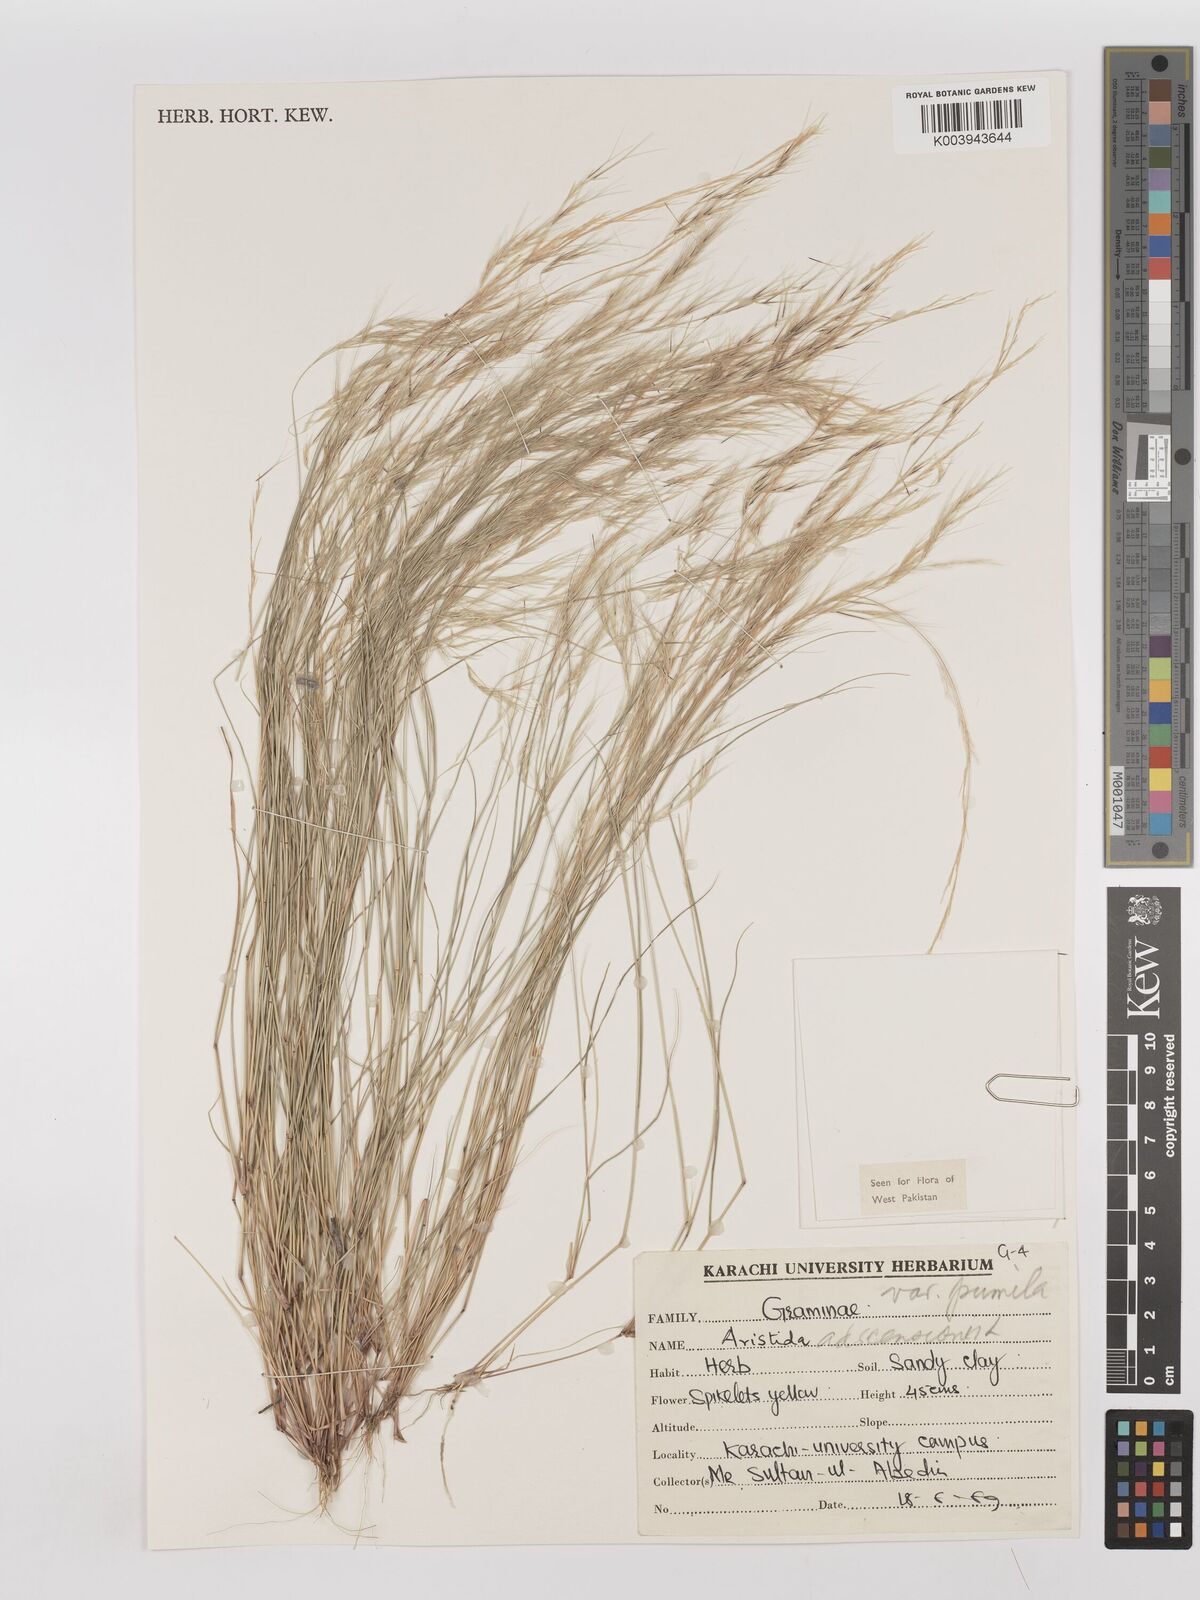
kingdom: Plantae
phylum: Tracheophyta
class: Liliopsida
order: Poales
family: Poaceae
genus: Aristida
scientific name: Aristida adscensionis
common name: Sixweeks threeawn
